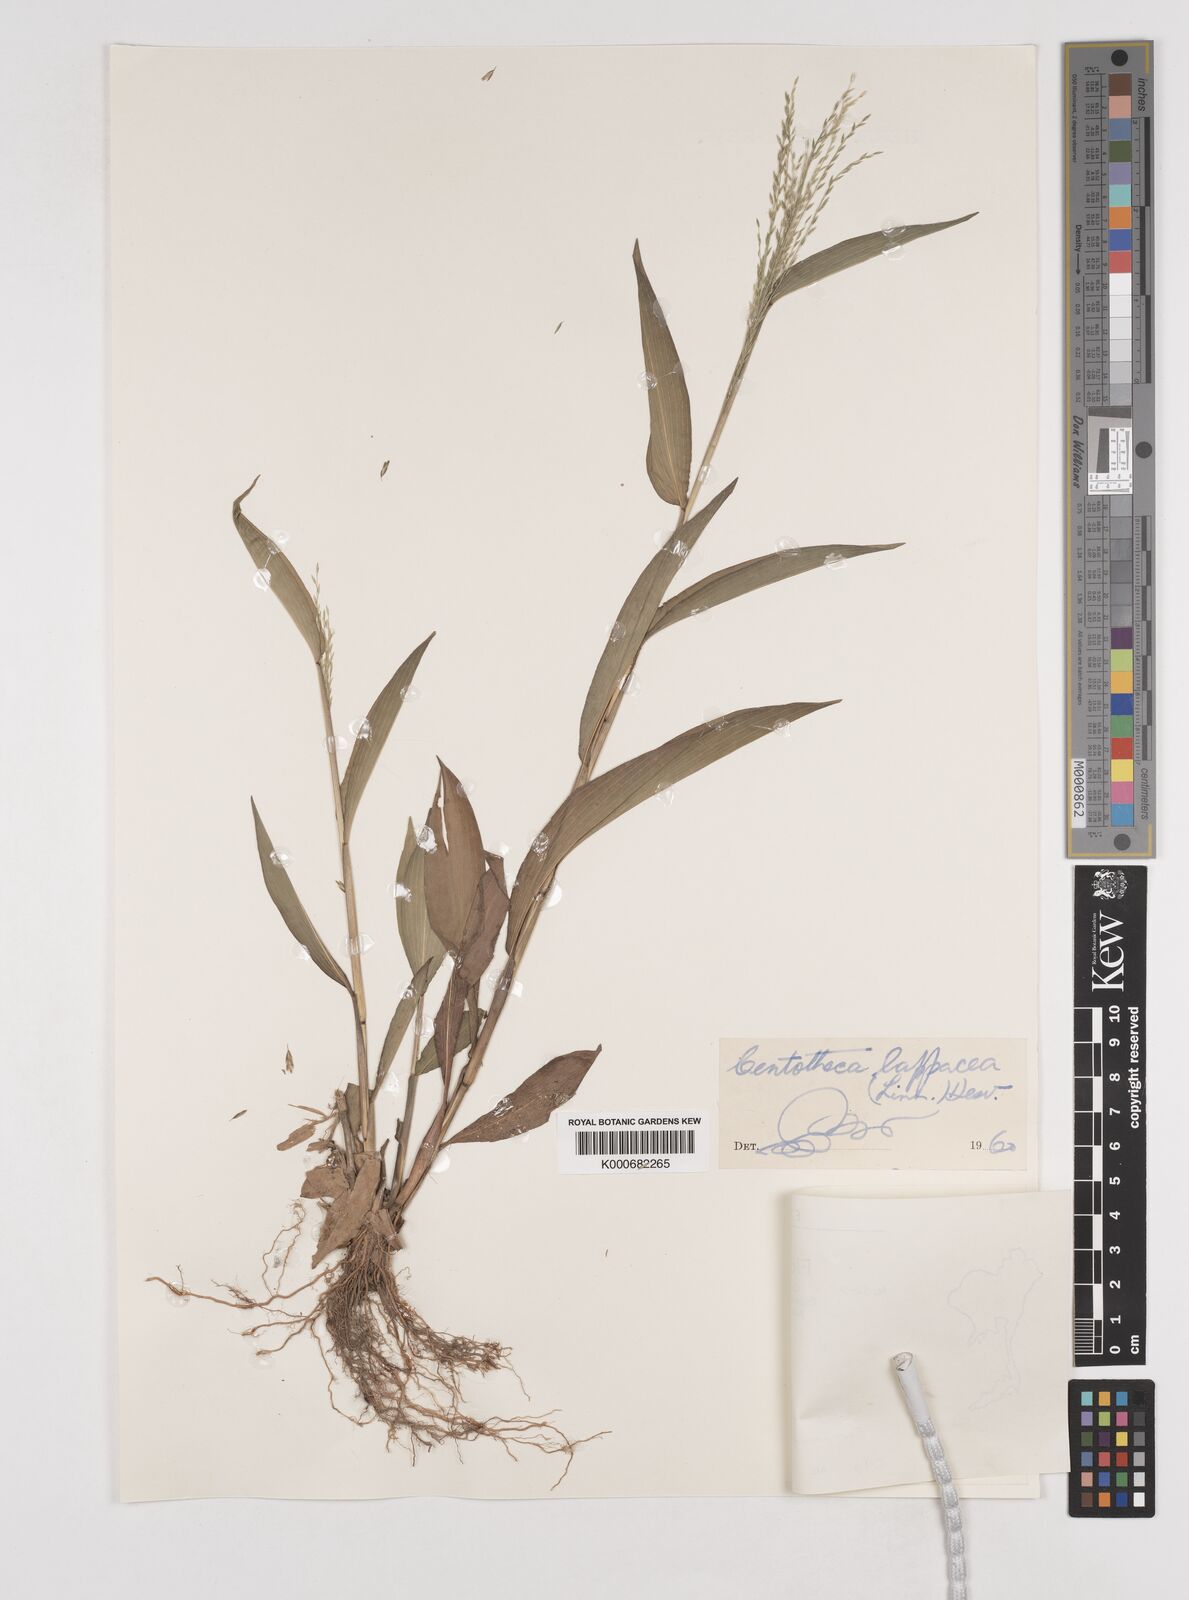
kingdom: Plantae
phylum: Tracheophyta
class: Liliopsida
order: Poales
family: Poaceae
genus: Centotheca
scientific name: Centotheca lappacea
